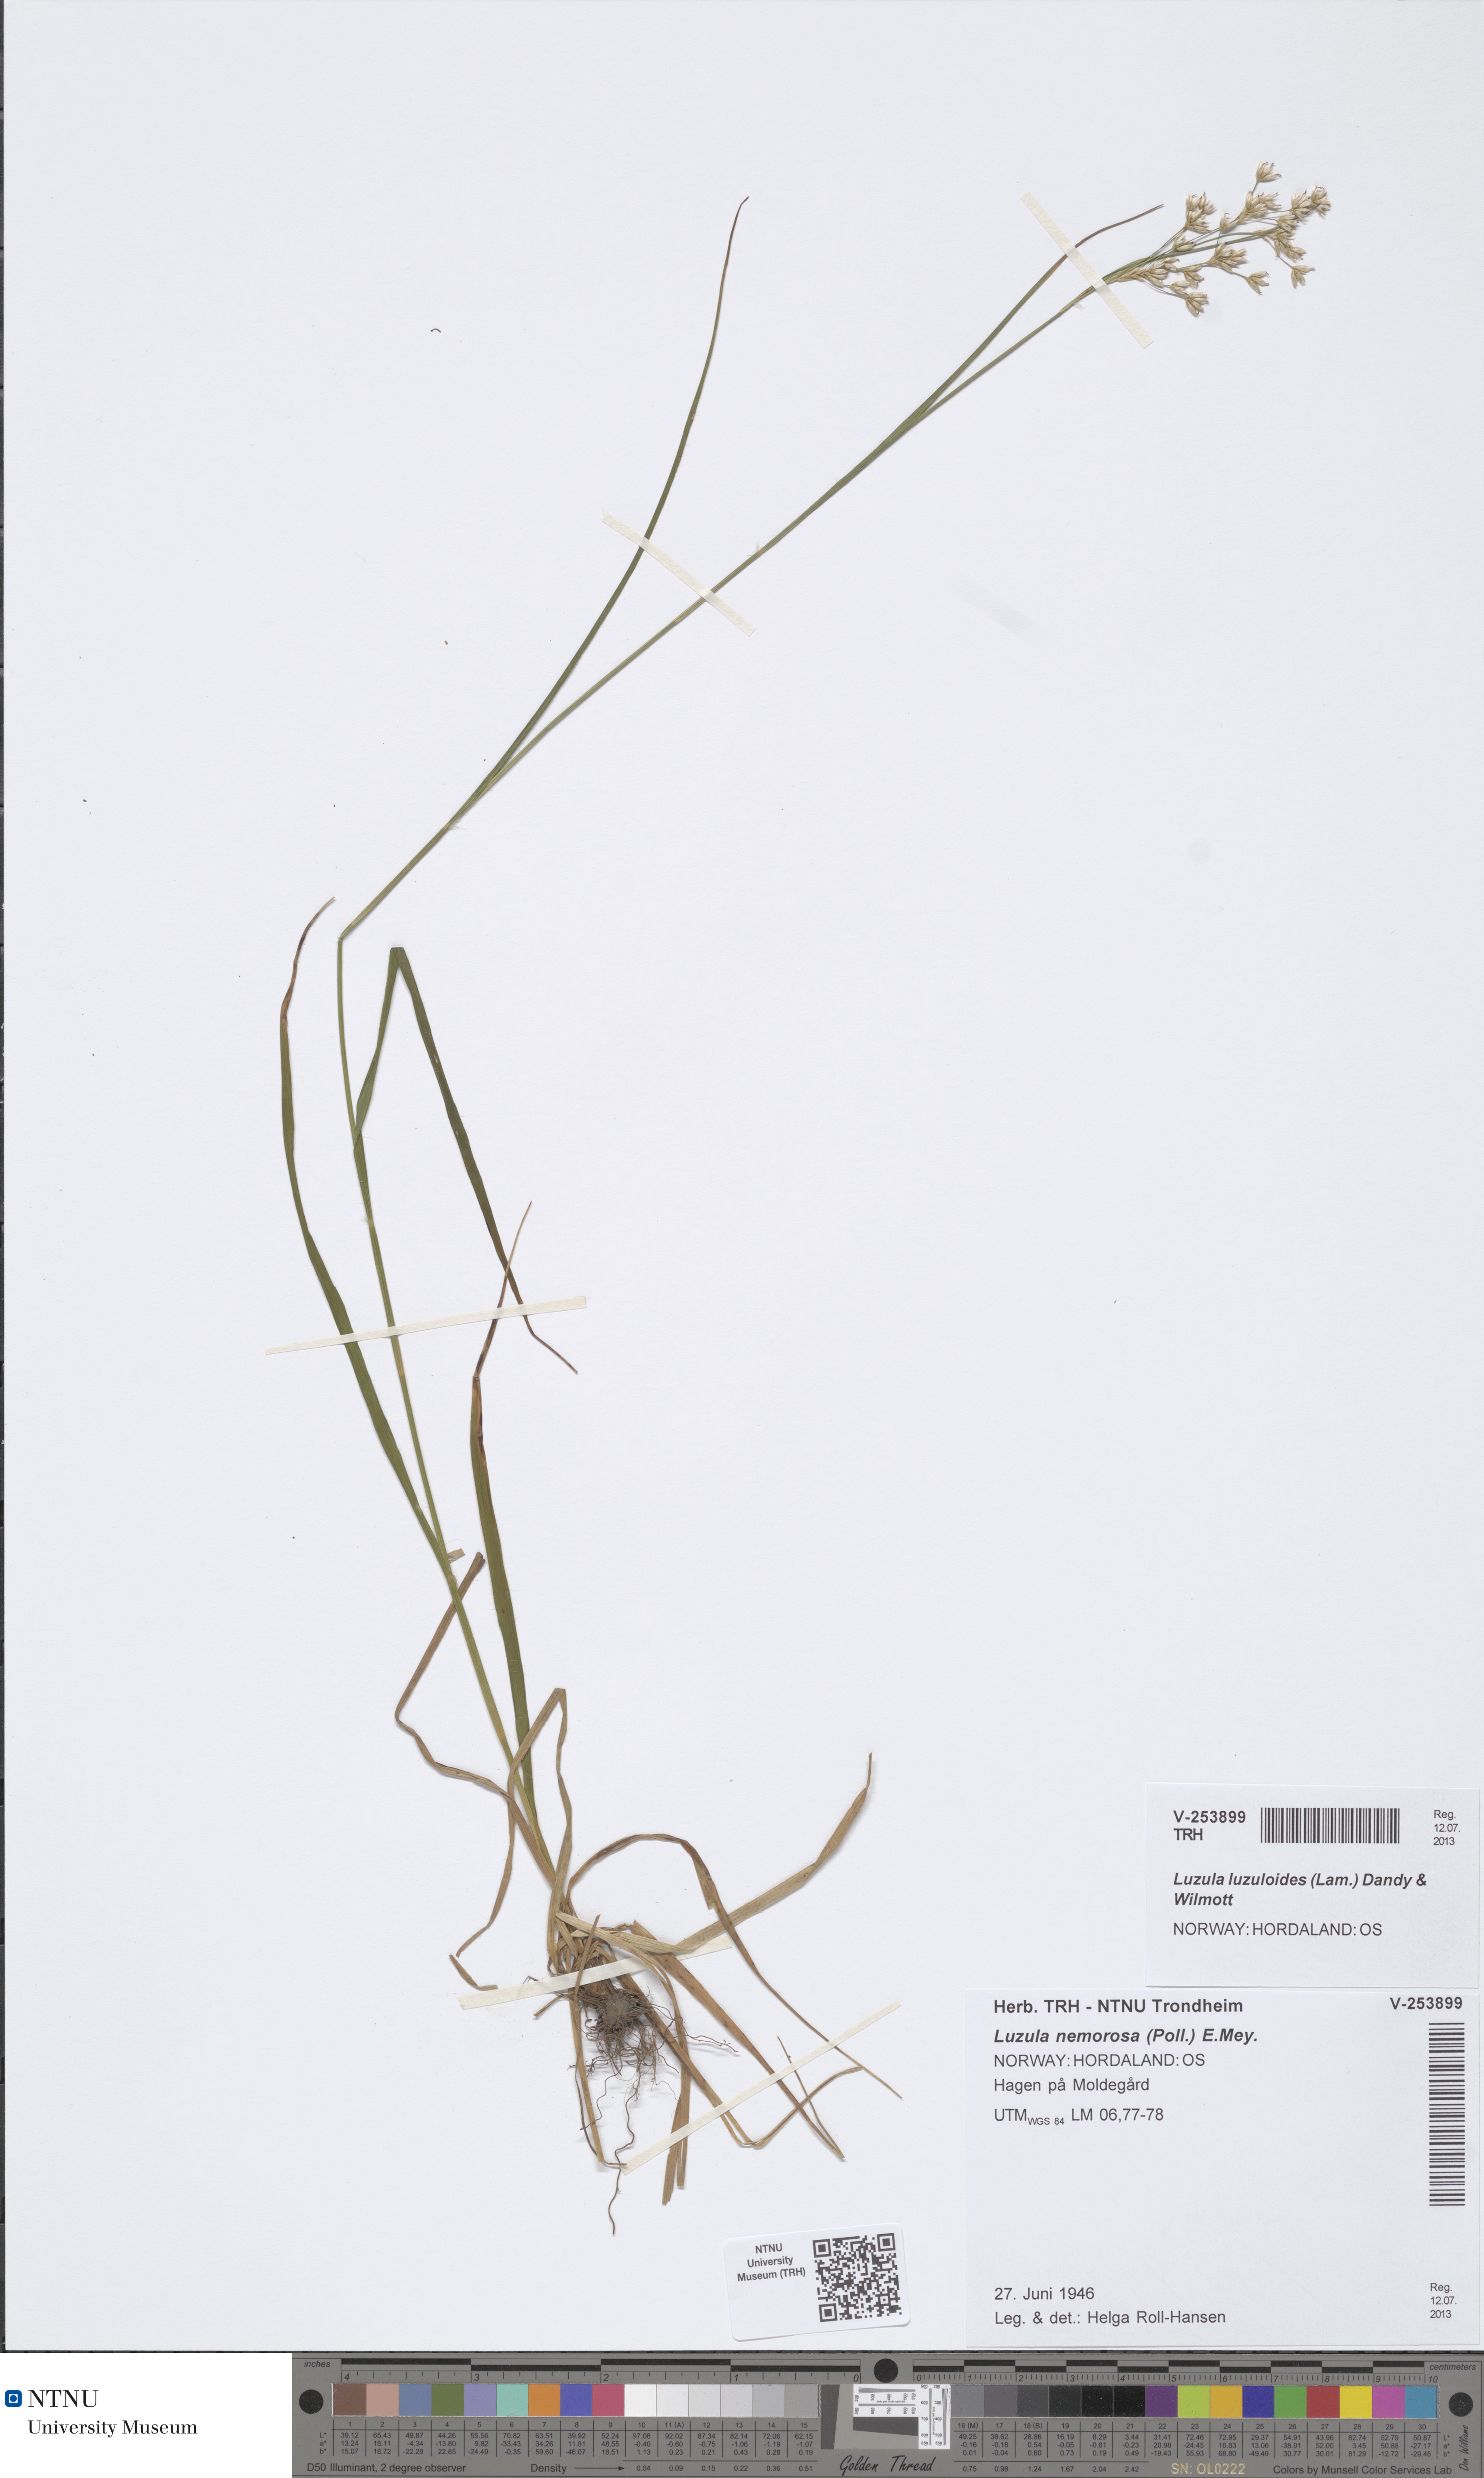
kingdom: Plantae
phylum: Tracheophyta
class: Liliopsida
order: Poales
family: Juncaceae
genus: Luzula
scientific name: Luzula luzuloides
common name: White wood-rush
